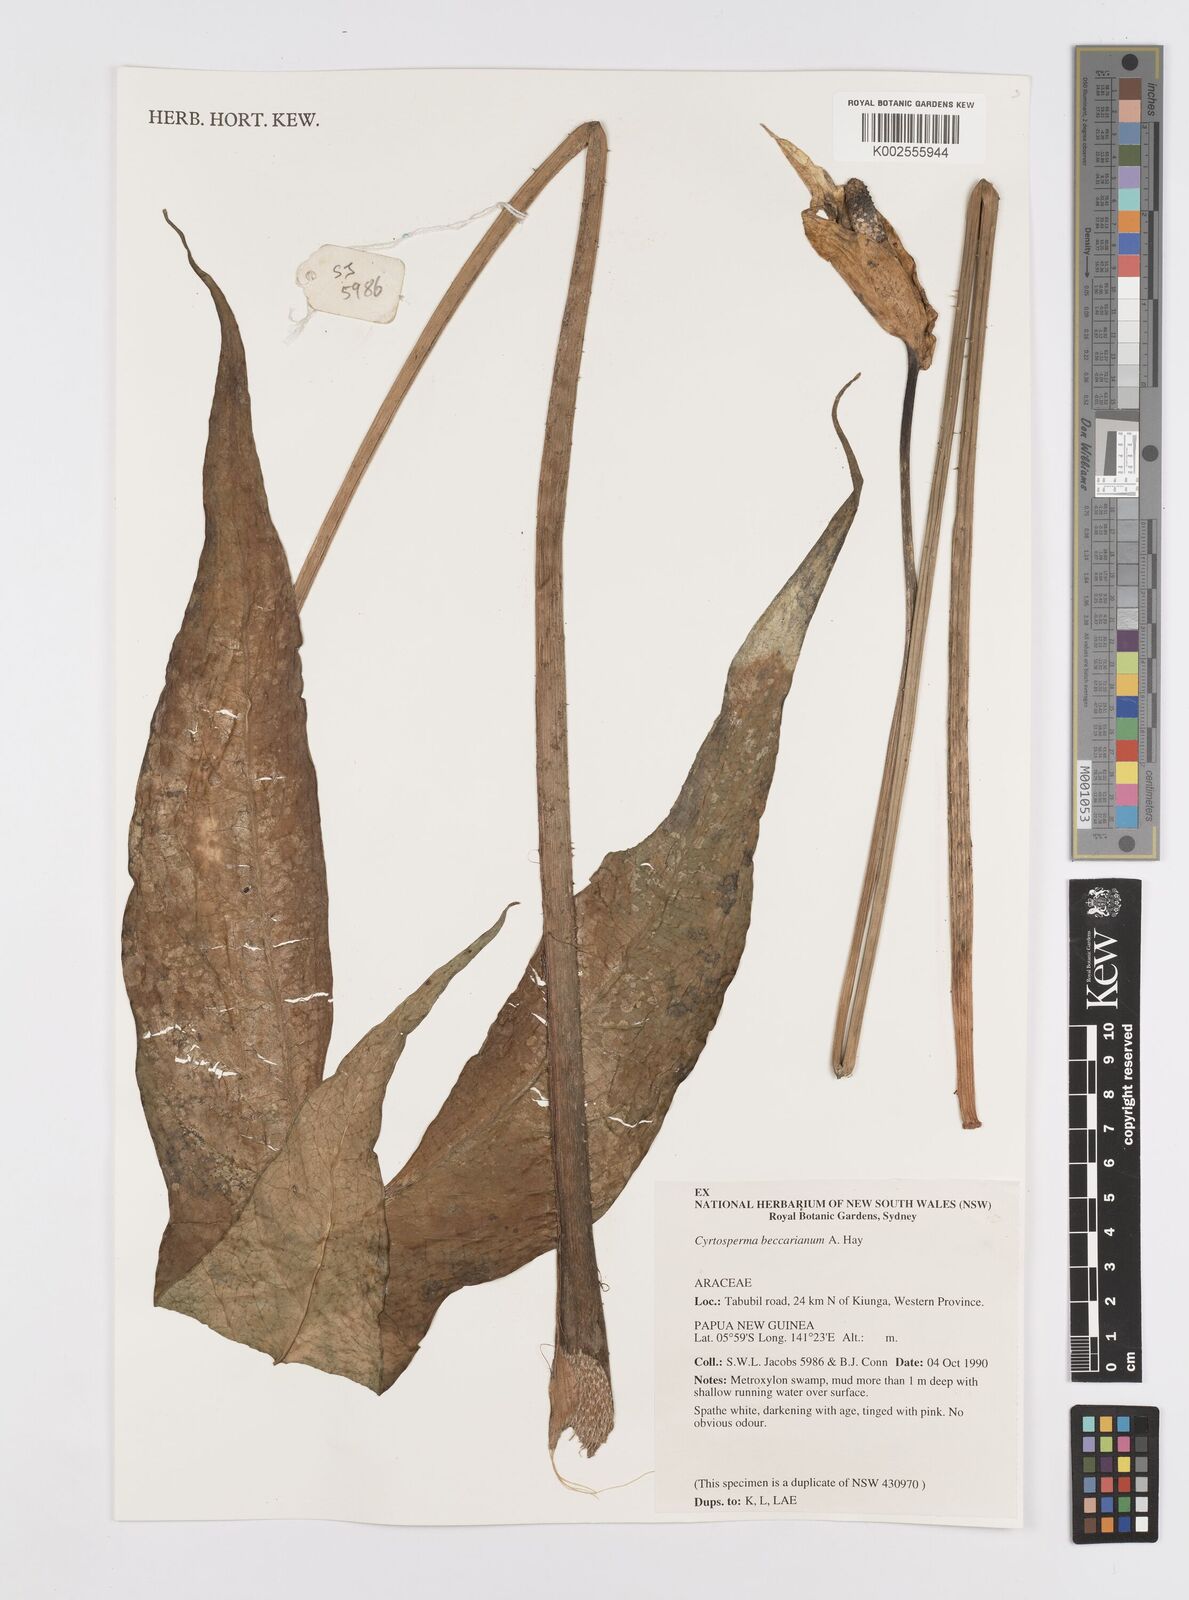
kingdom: Plantae
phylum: Tracheophyta
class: Liliopsida
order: Alismatales
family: Araceae
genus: Cyrtosperma
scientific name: Cyrtosperma beccarianum
